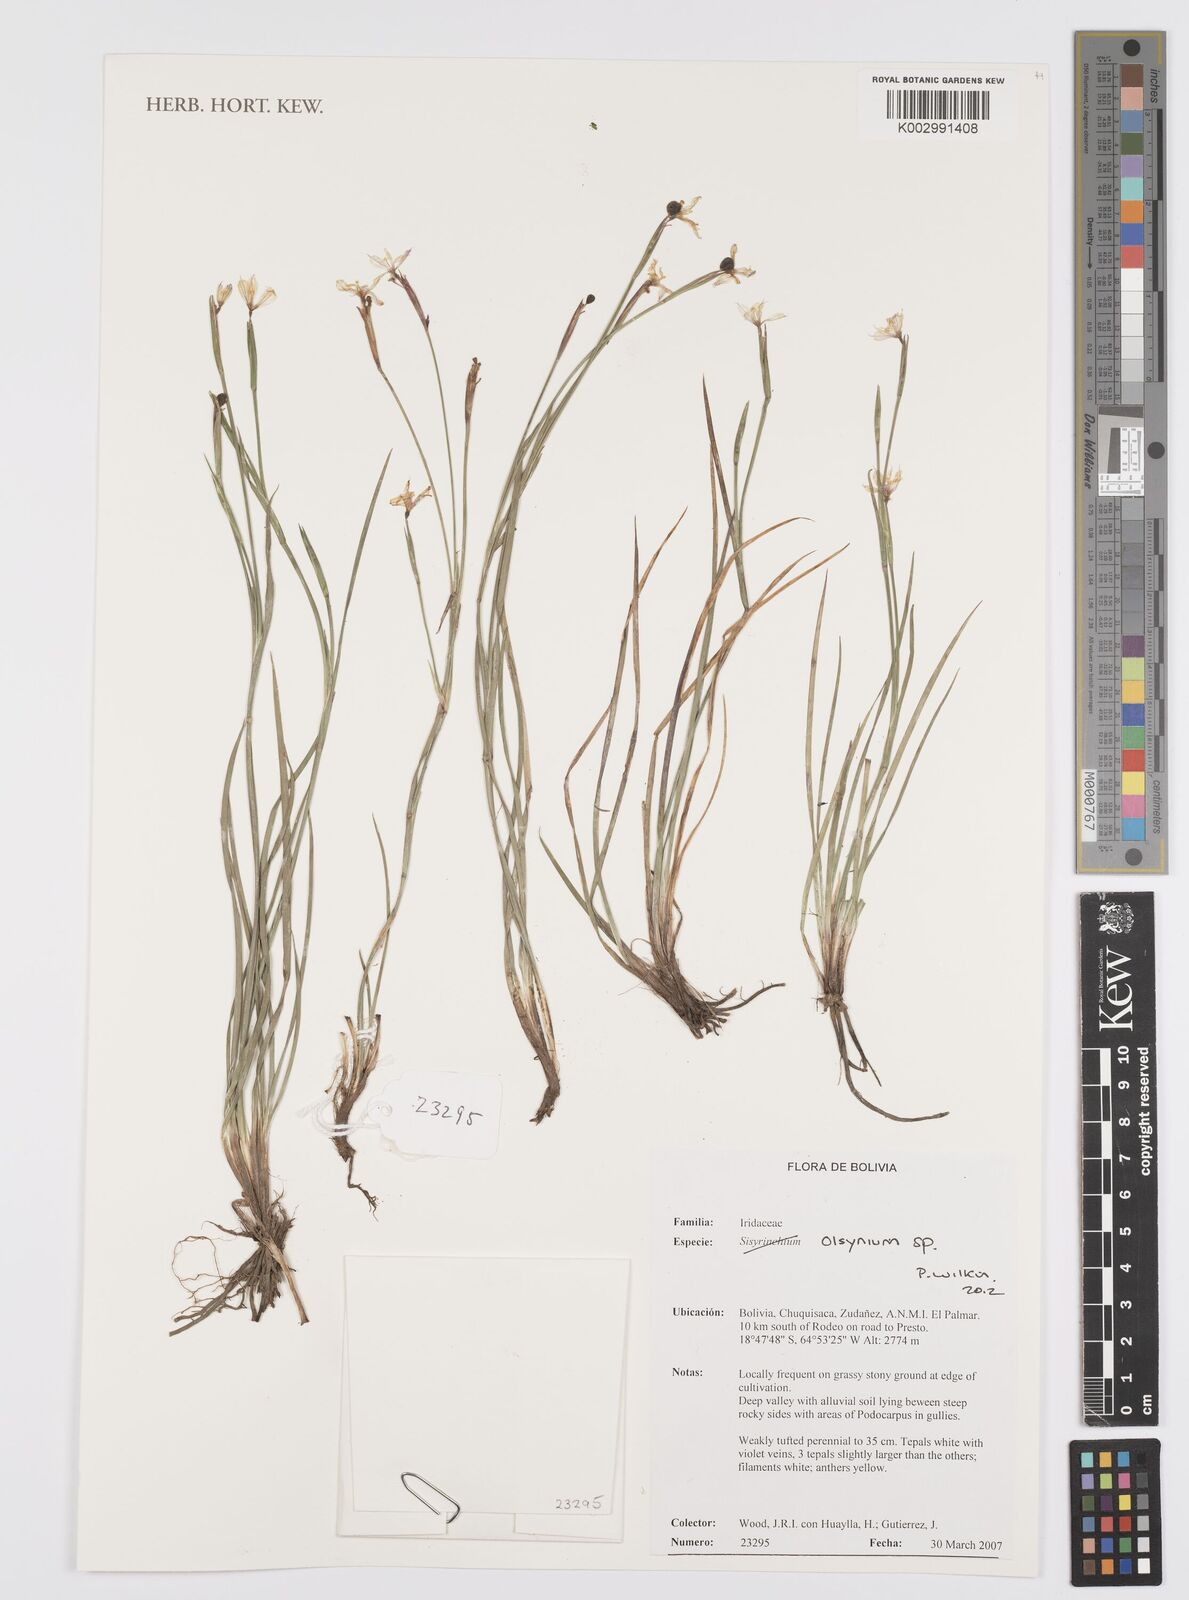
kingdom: Plantae
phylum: Tracheophyta
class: Liliopsida
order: Asparagales
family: Iridaceae
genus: Olsynium
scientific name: Olsynium
